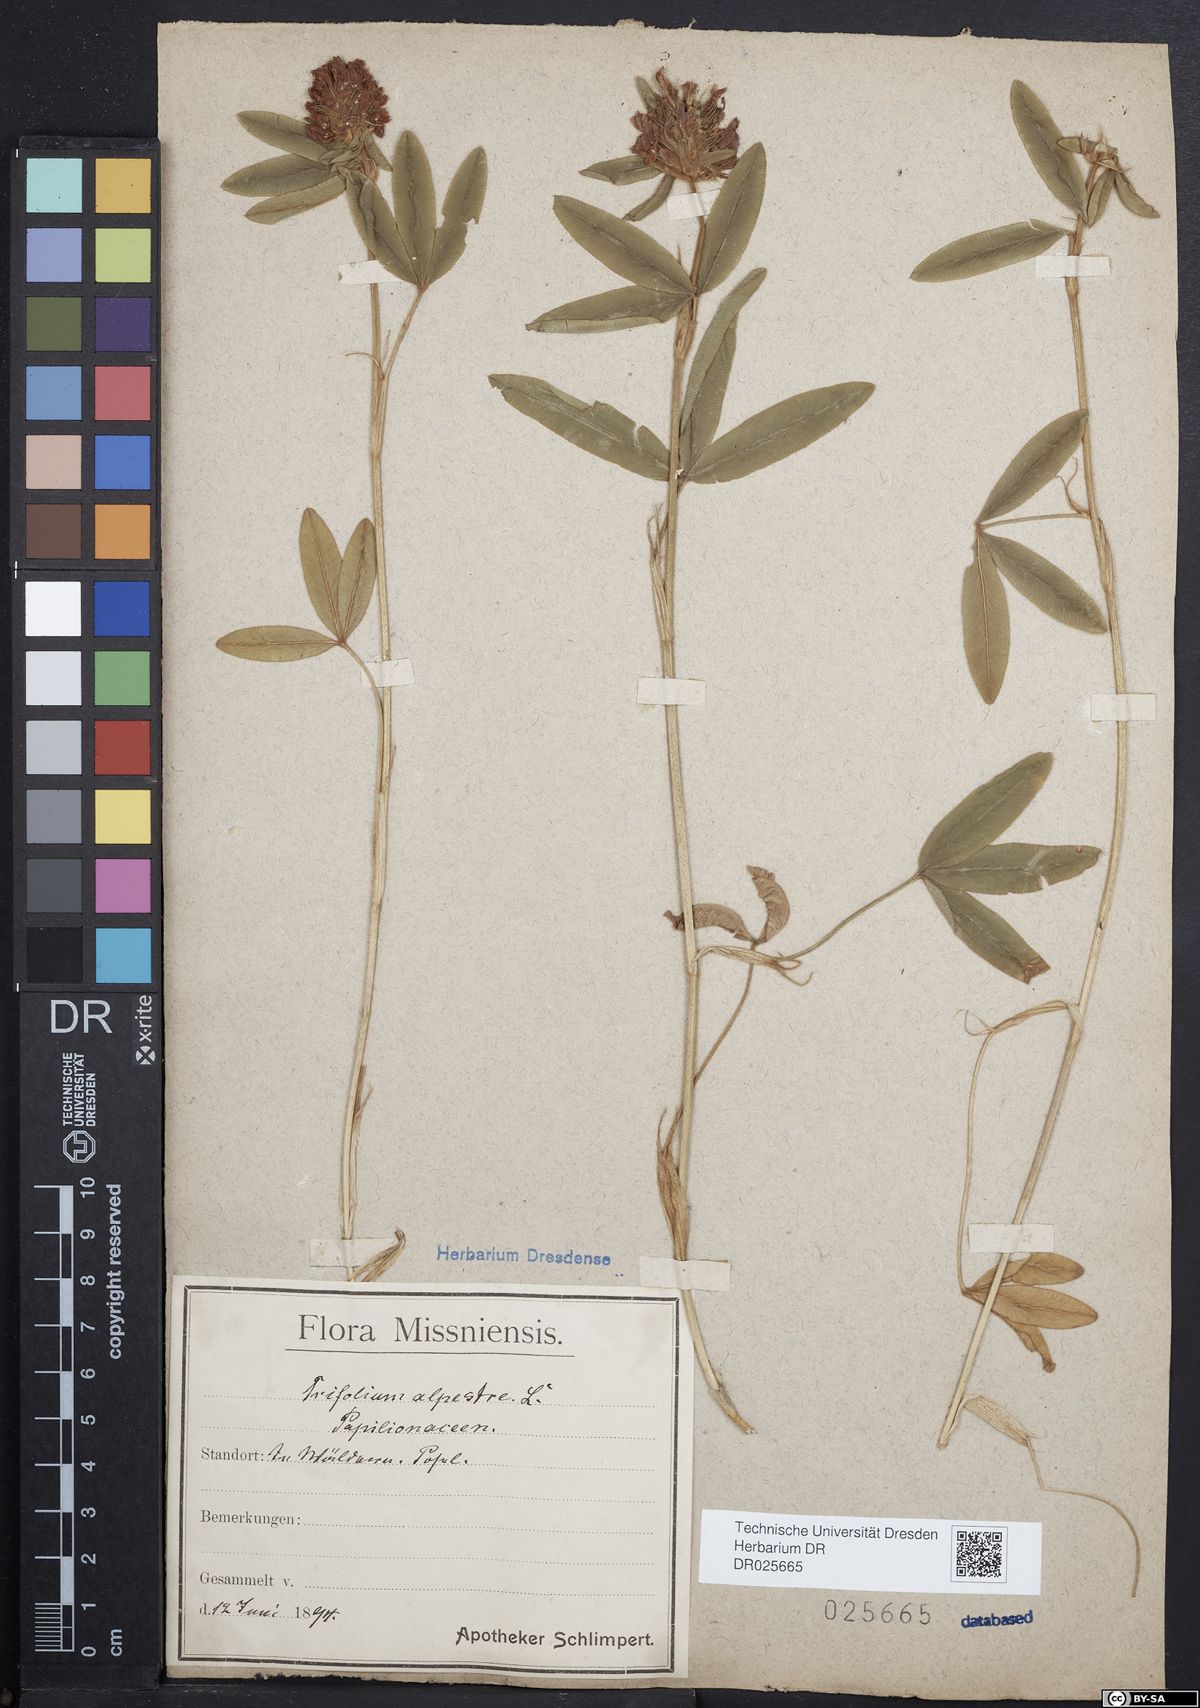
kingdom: Plantae
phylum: Tracheophyta
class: Magnoliopsida
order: Fabales
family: Fabaceae
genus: Trifolium
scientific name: Trifolium alpestre
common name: Owl-head clover
